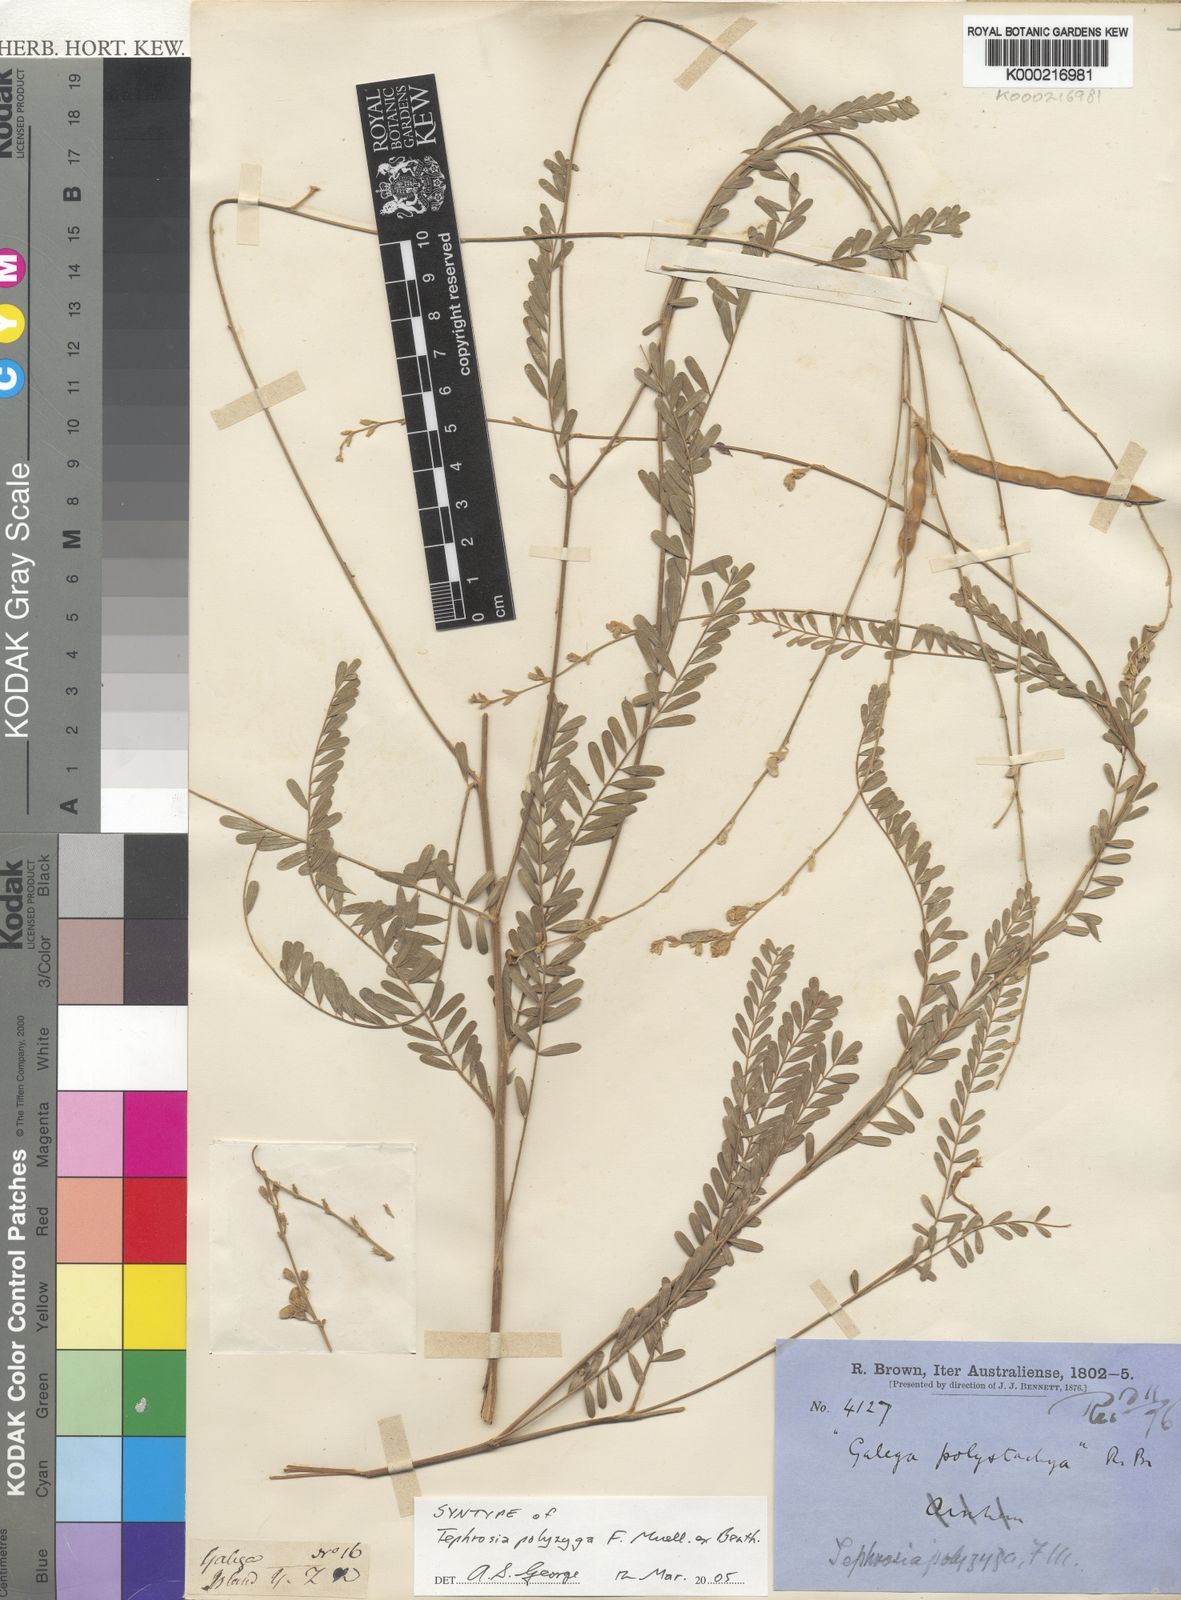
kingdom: Plantae
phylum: Tracheophyta
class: Magnoliopsida
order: Fabales
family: Fabaceae
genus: Tephrosia
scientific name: Tephrosia polyzyga
